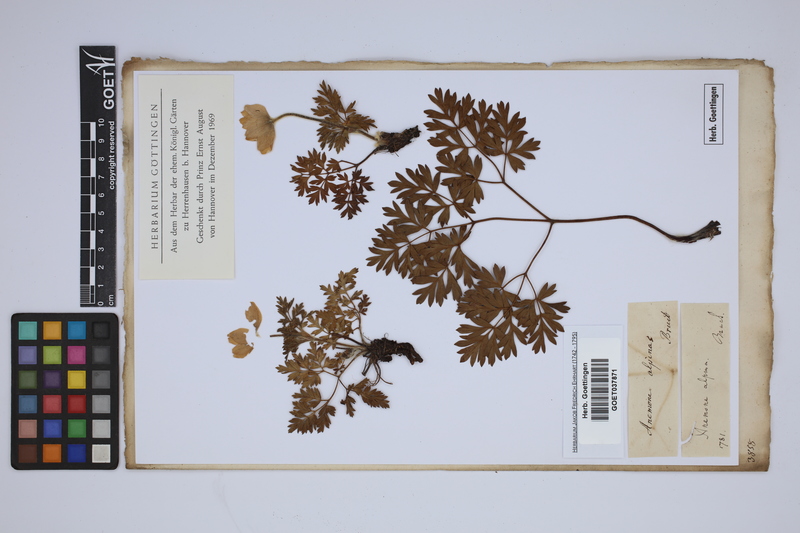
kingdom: Plantae
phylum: Tracheophyta
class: Magnoliopsida
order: Ranunculales
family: Ranunculaceae
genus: Pulsatilla
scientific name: Pulsatilla alpina
